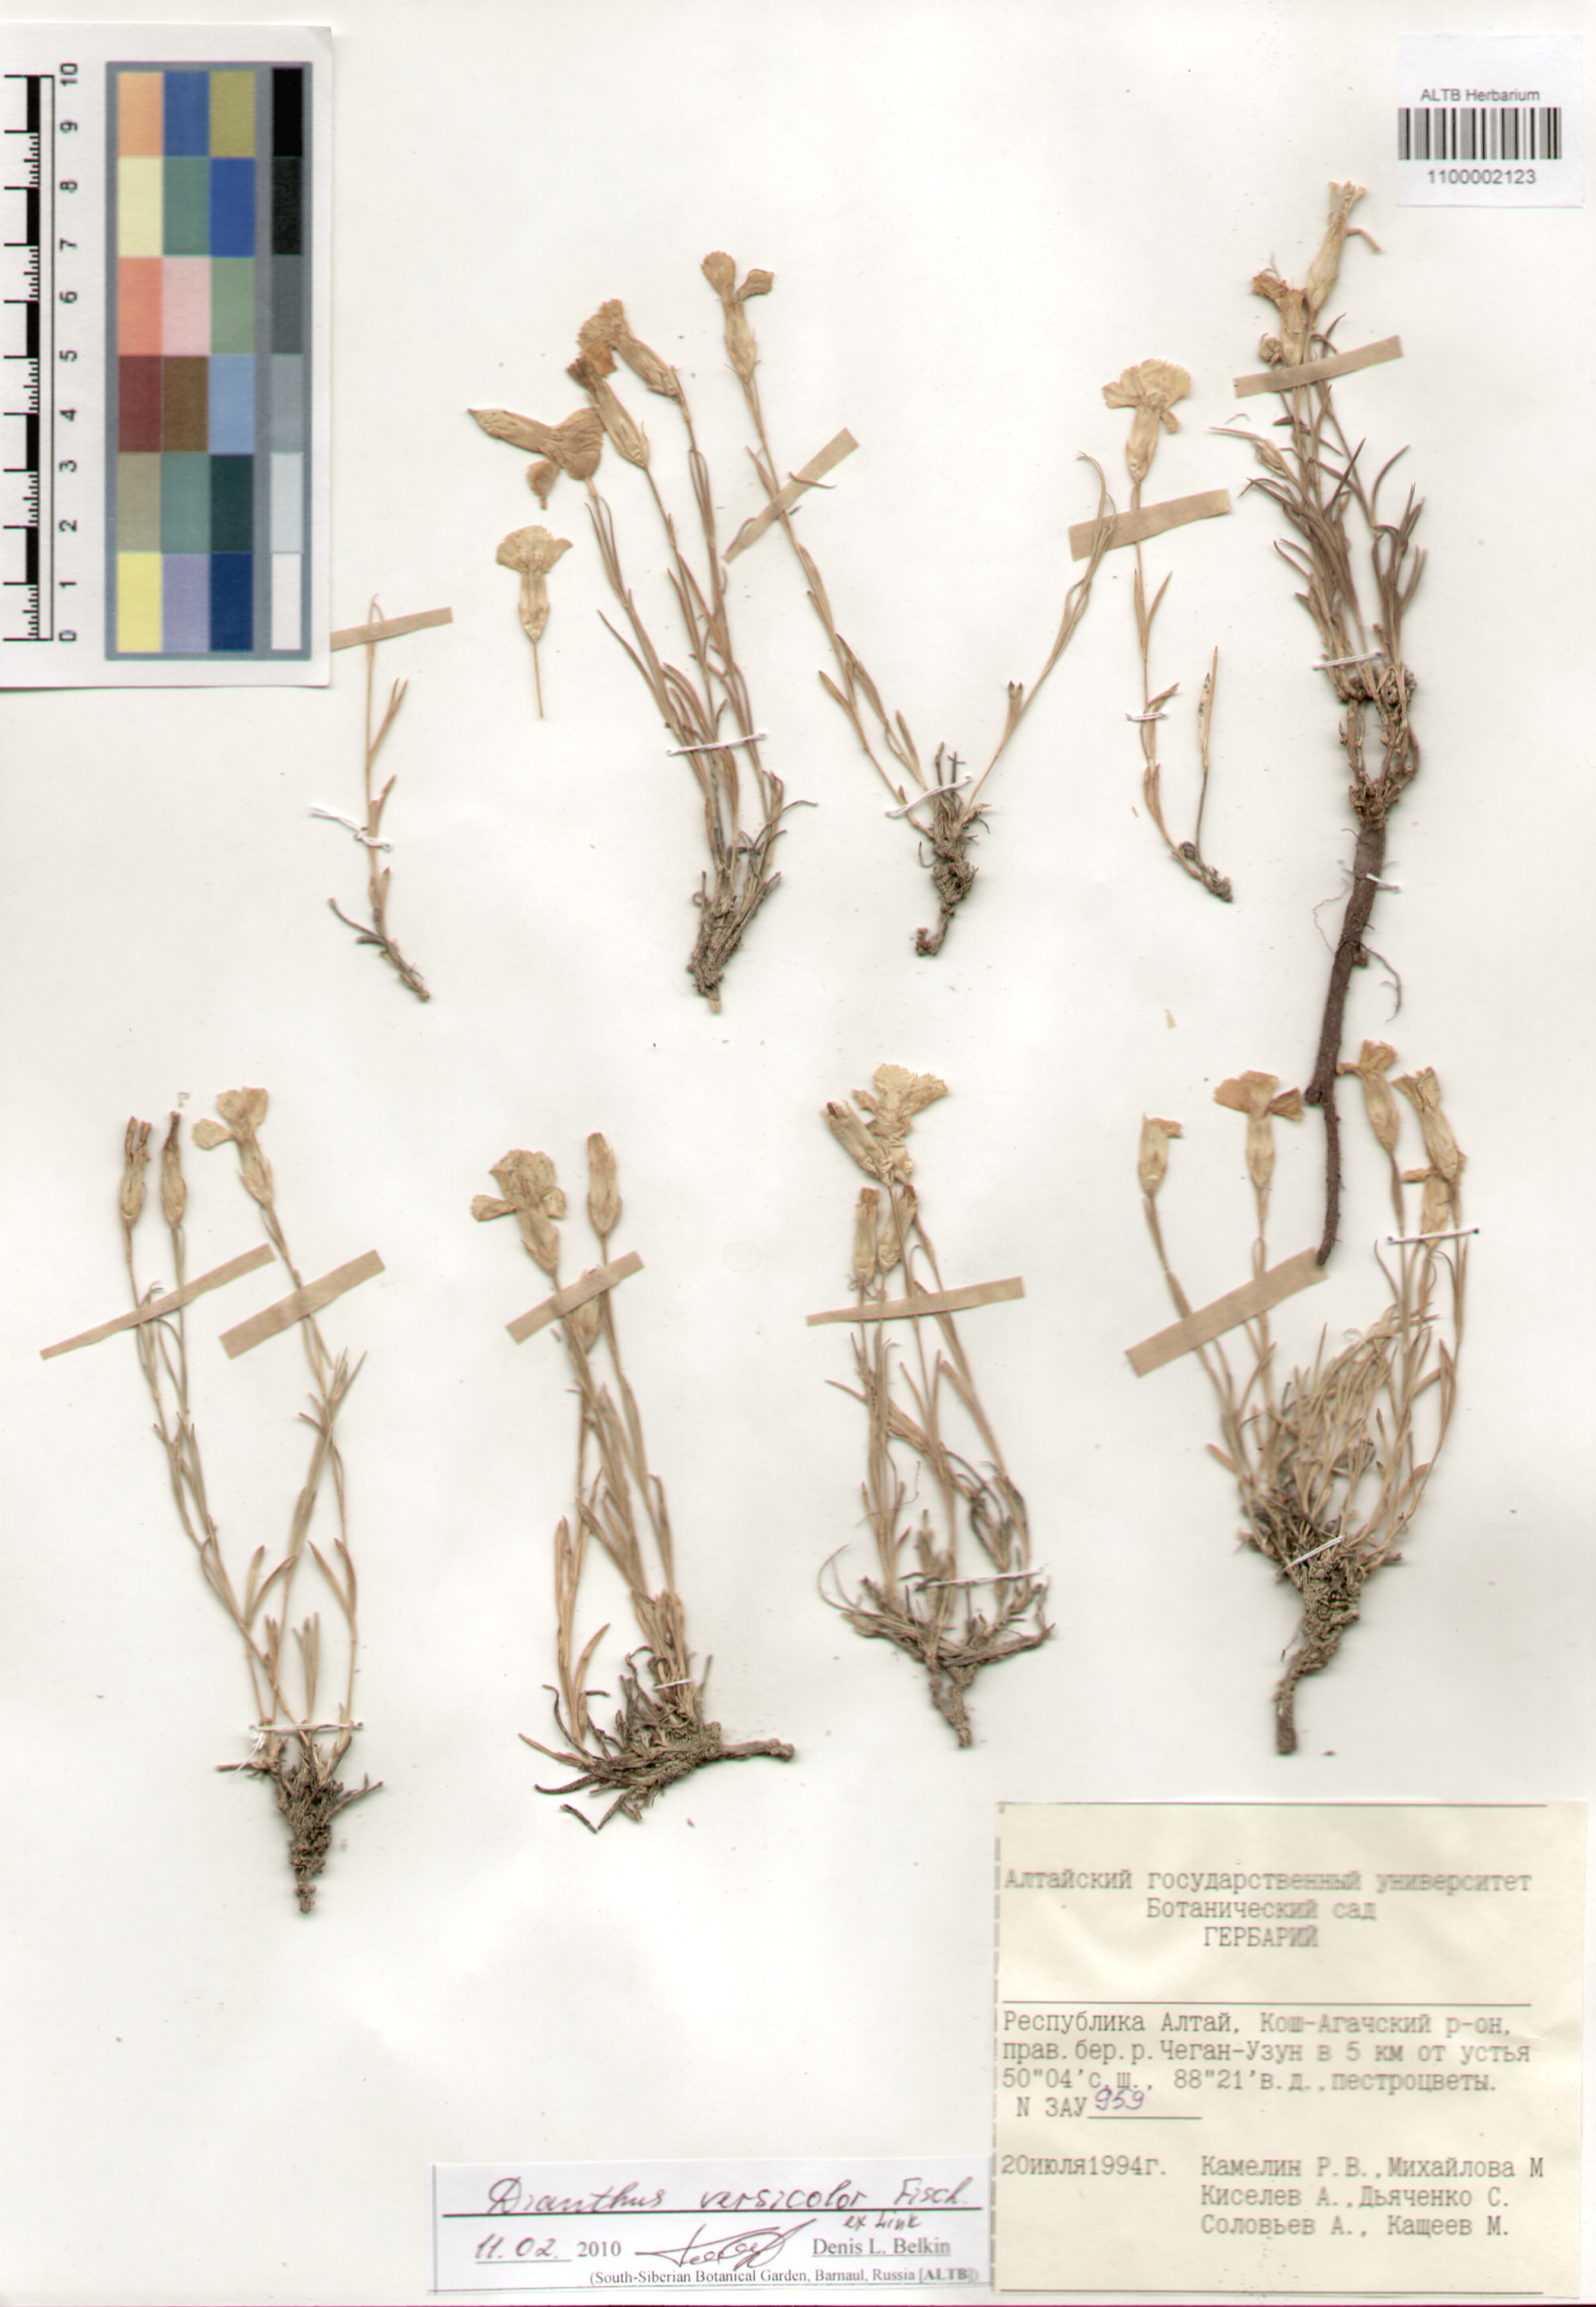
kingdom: Plantae
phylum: Tracheophyta
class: Magnoliopsida
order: Caryophyllales
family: Caryophyllaceae
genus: Dianthus
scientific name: Dianthus chinensis
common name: Rainbow pink
